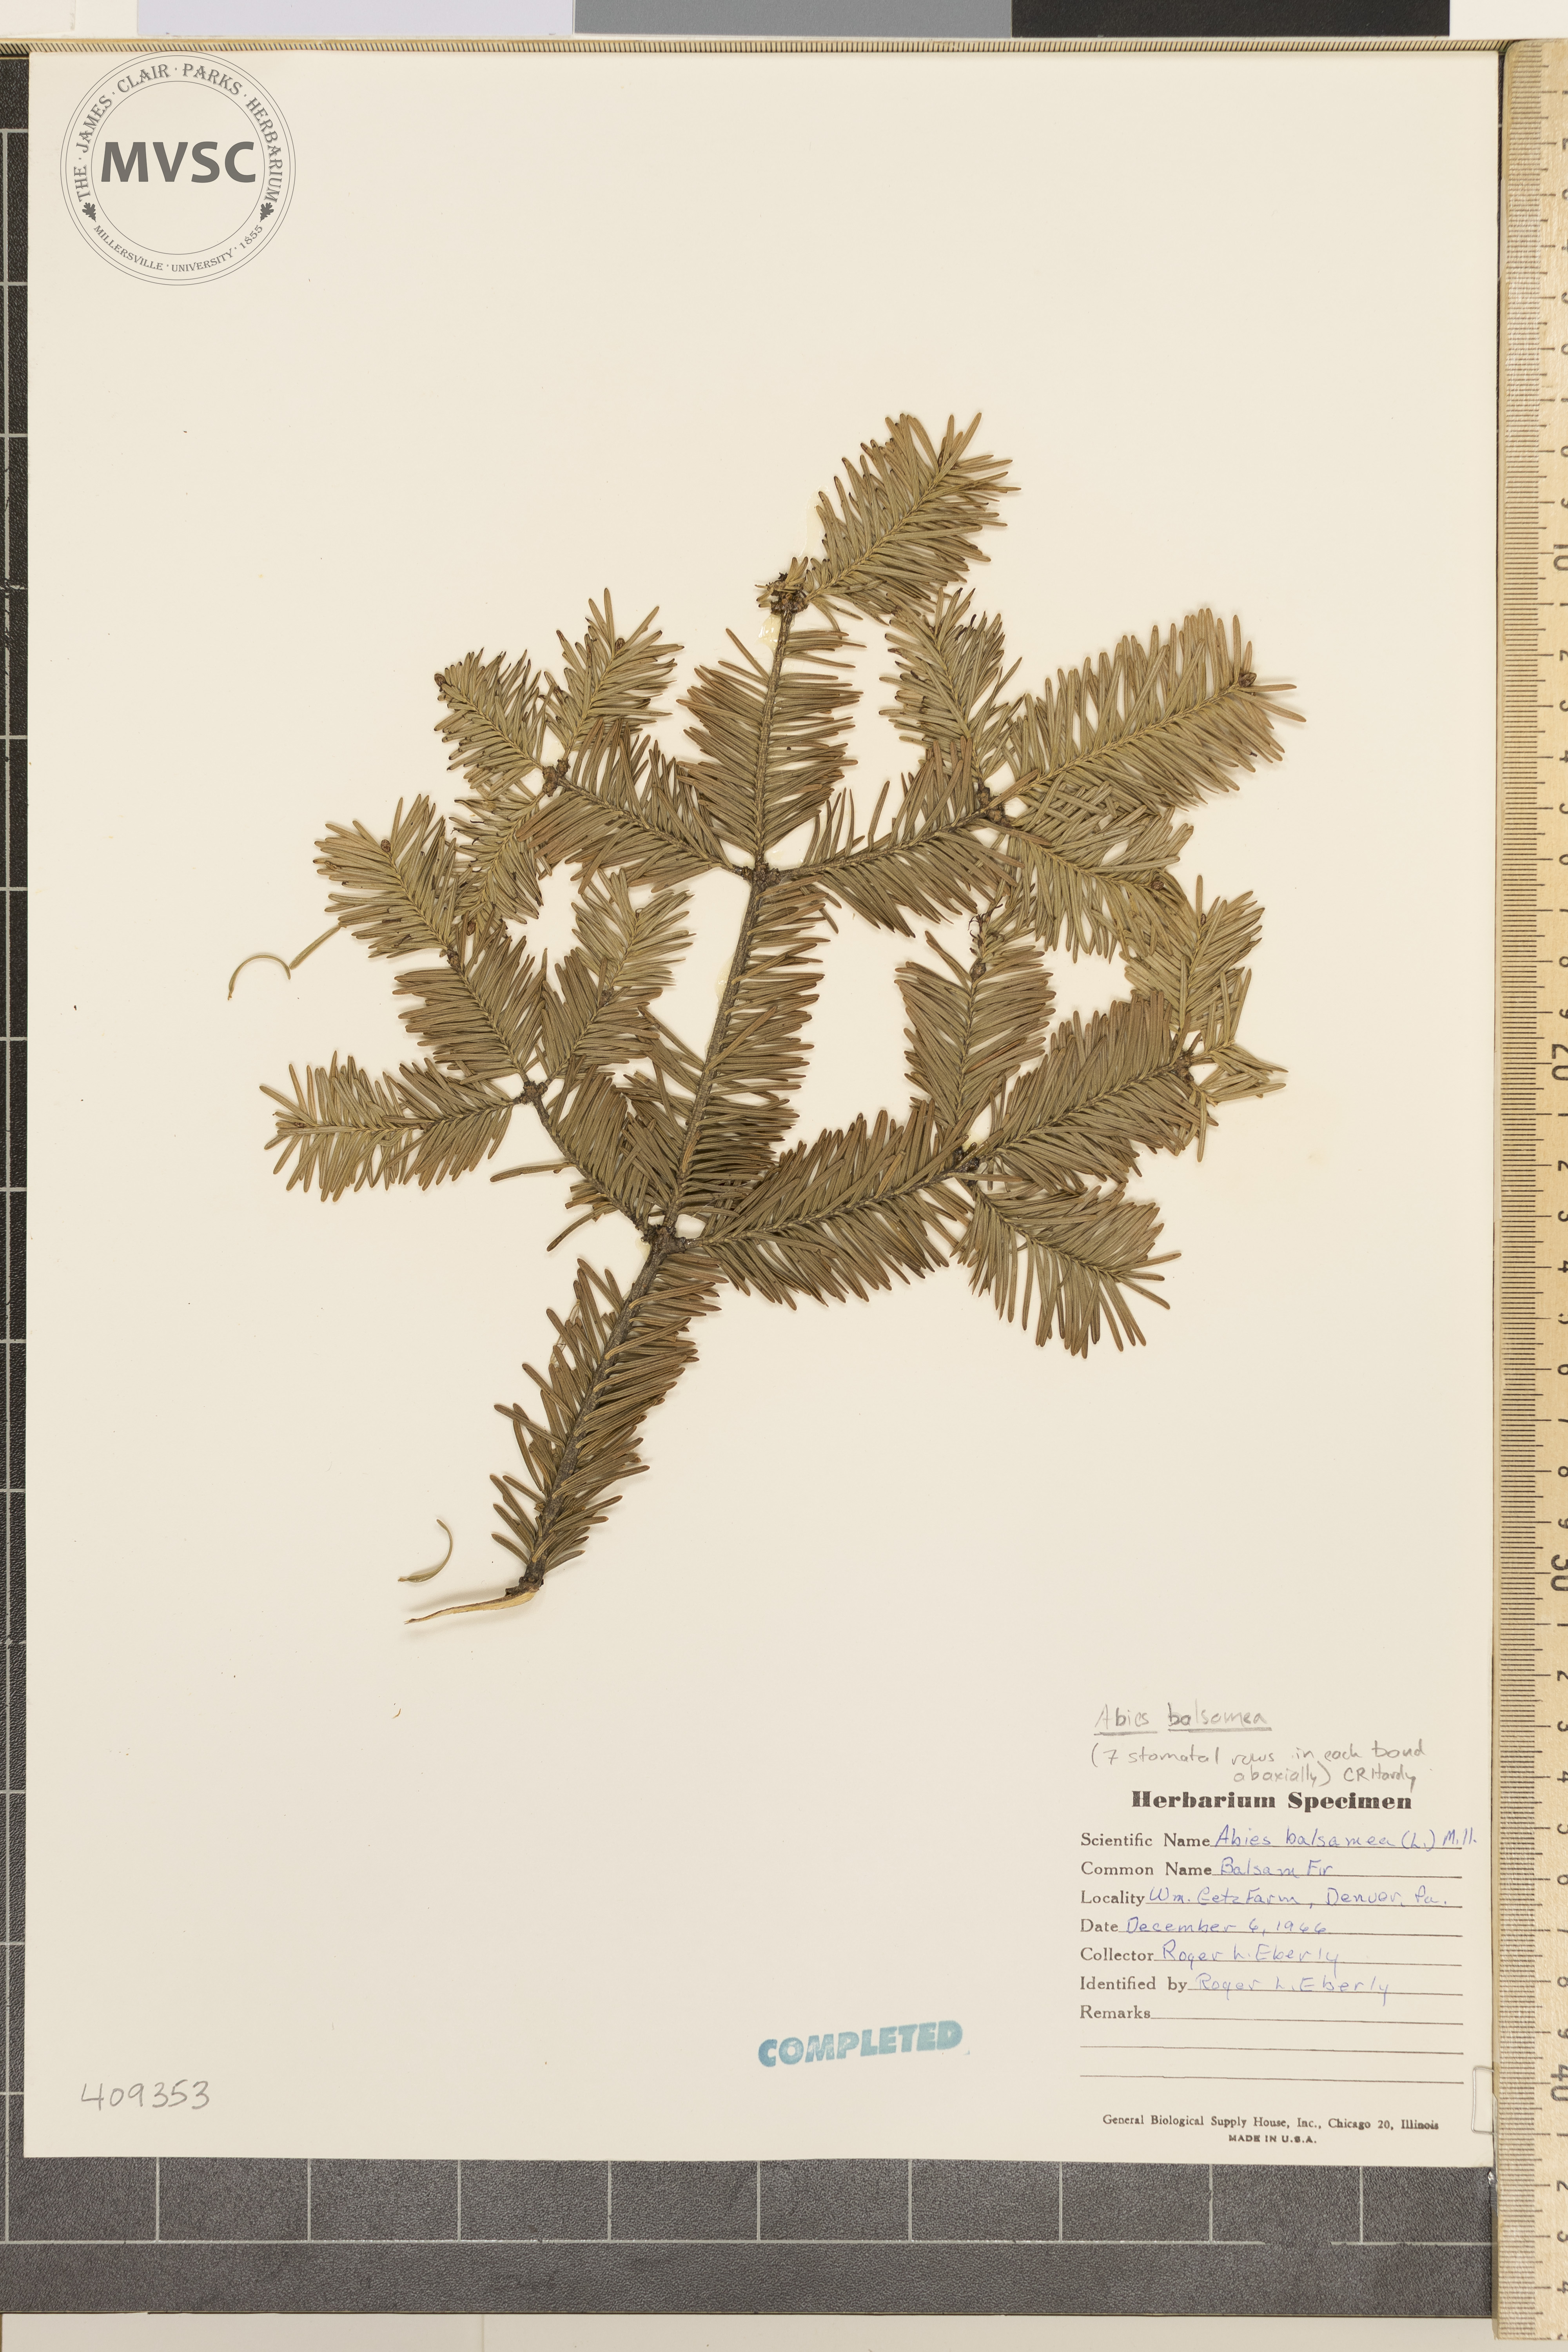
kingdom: Plantae
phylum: Tracheophyta
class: Pinopsida
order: Pinales
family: Pinaceae
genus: Abies
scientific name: Abies balsamea
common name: Balsam fir
